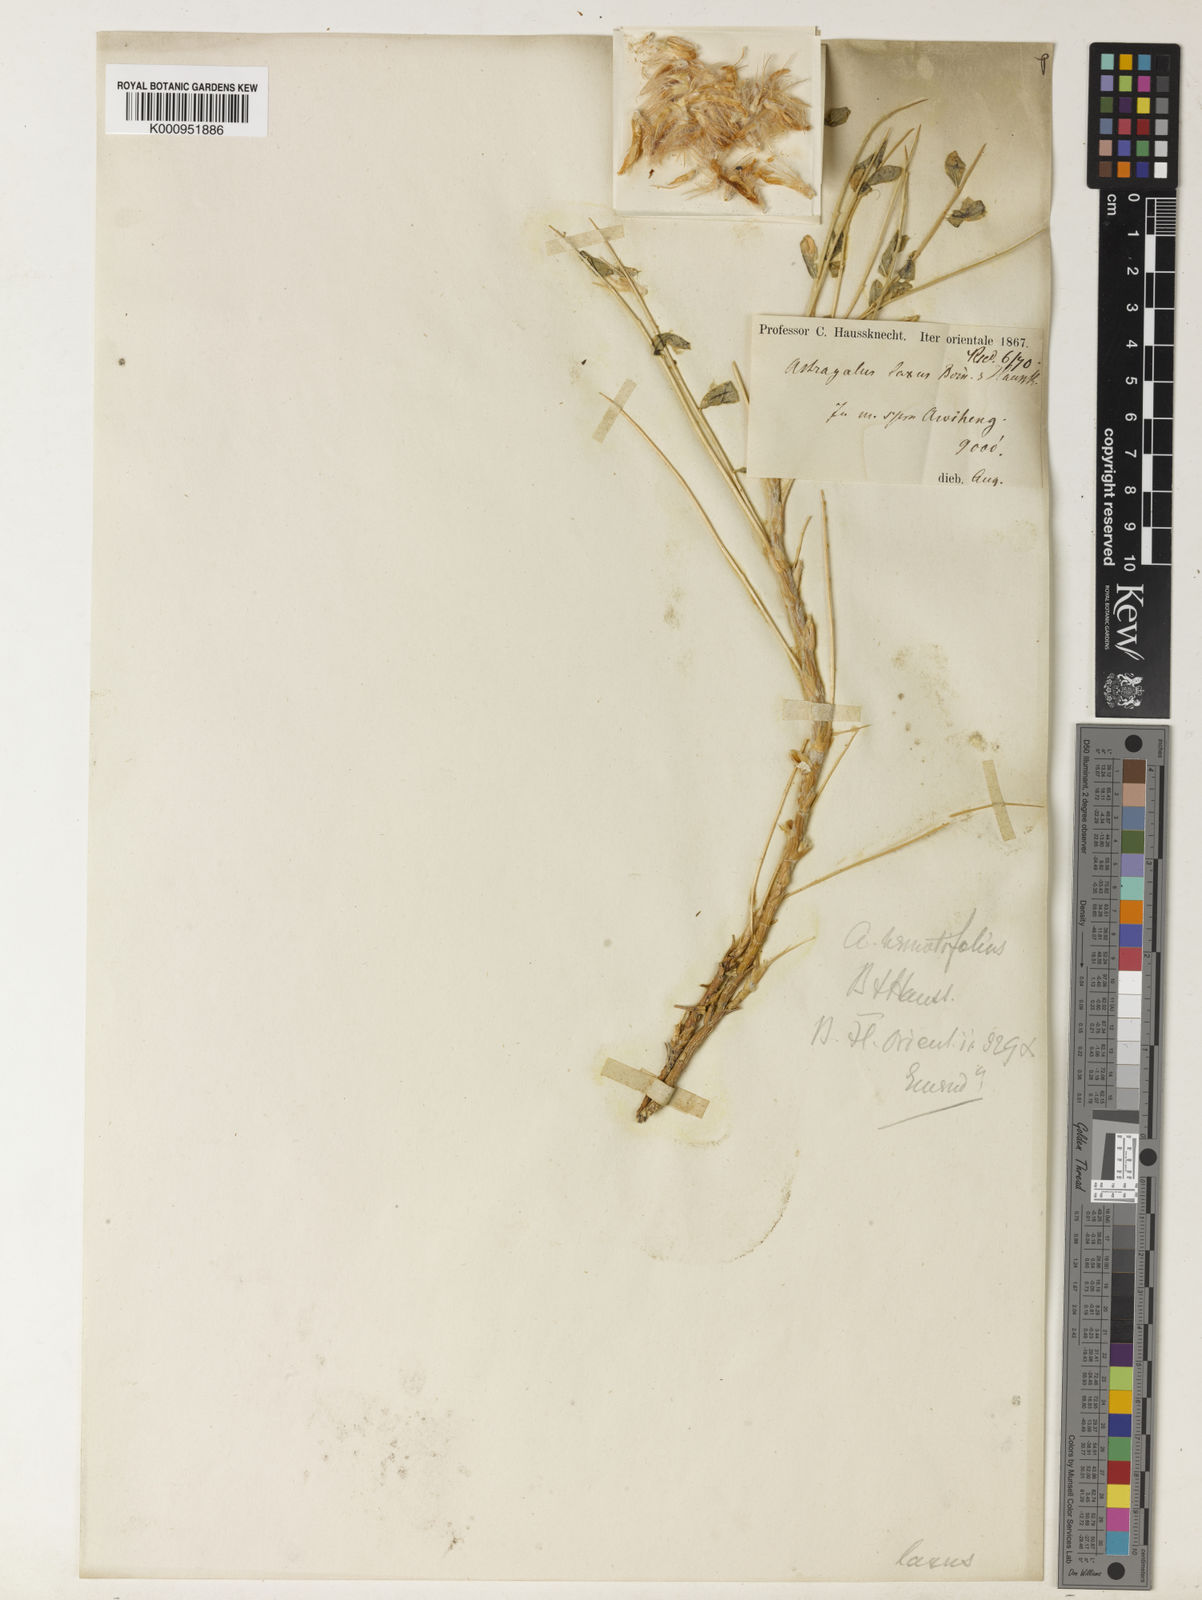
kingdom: Plantae
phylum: Tracheophyta
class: Magnoliopsida
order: Fabales
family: Fabaceae
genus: Astragalus
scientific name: Astragalus michauxianus
